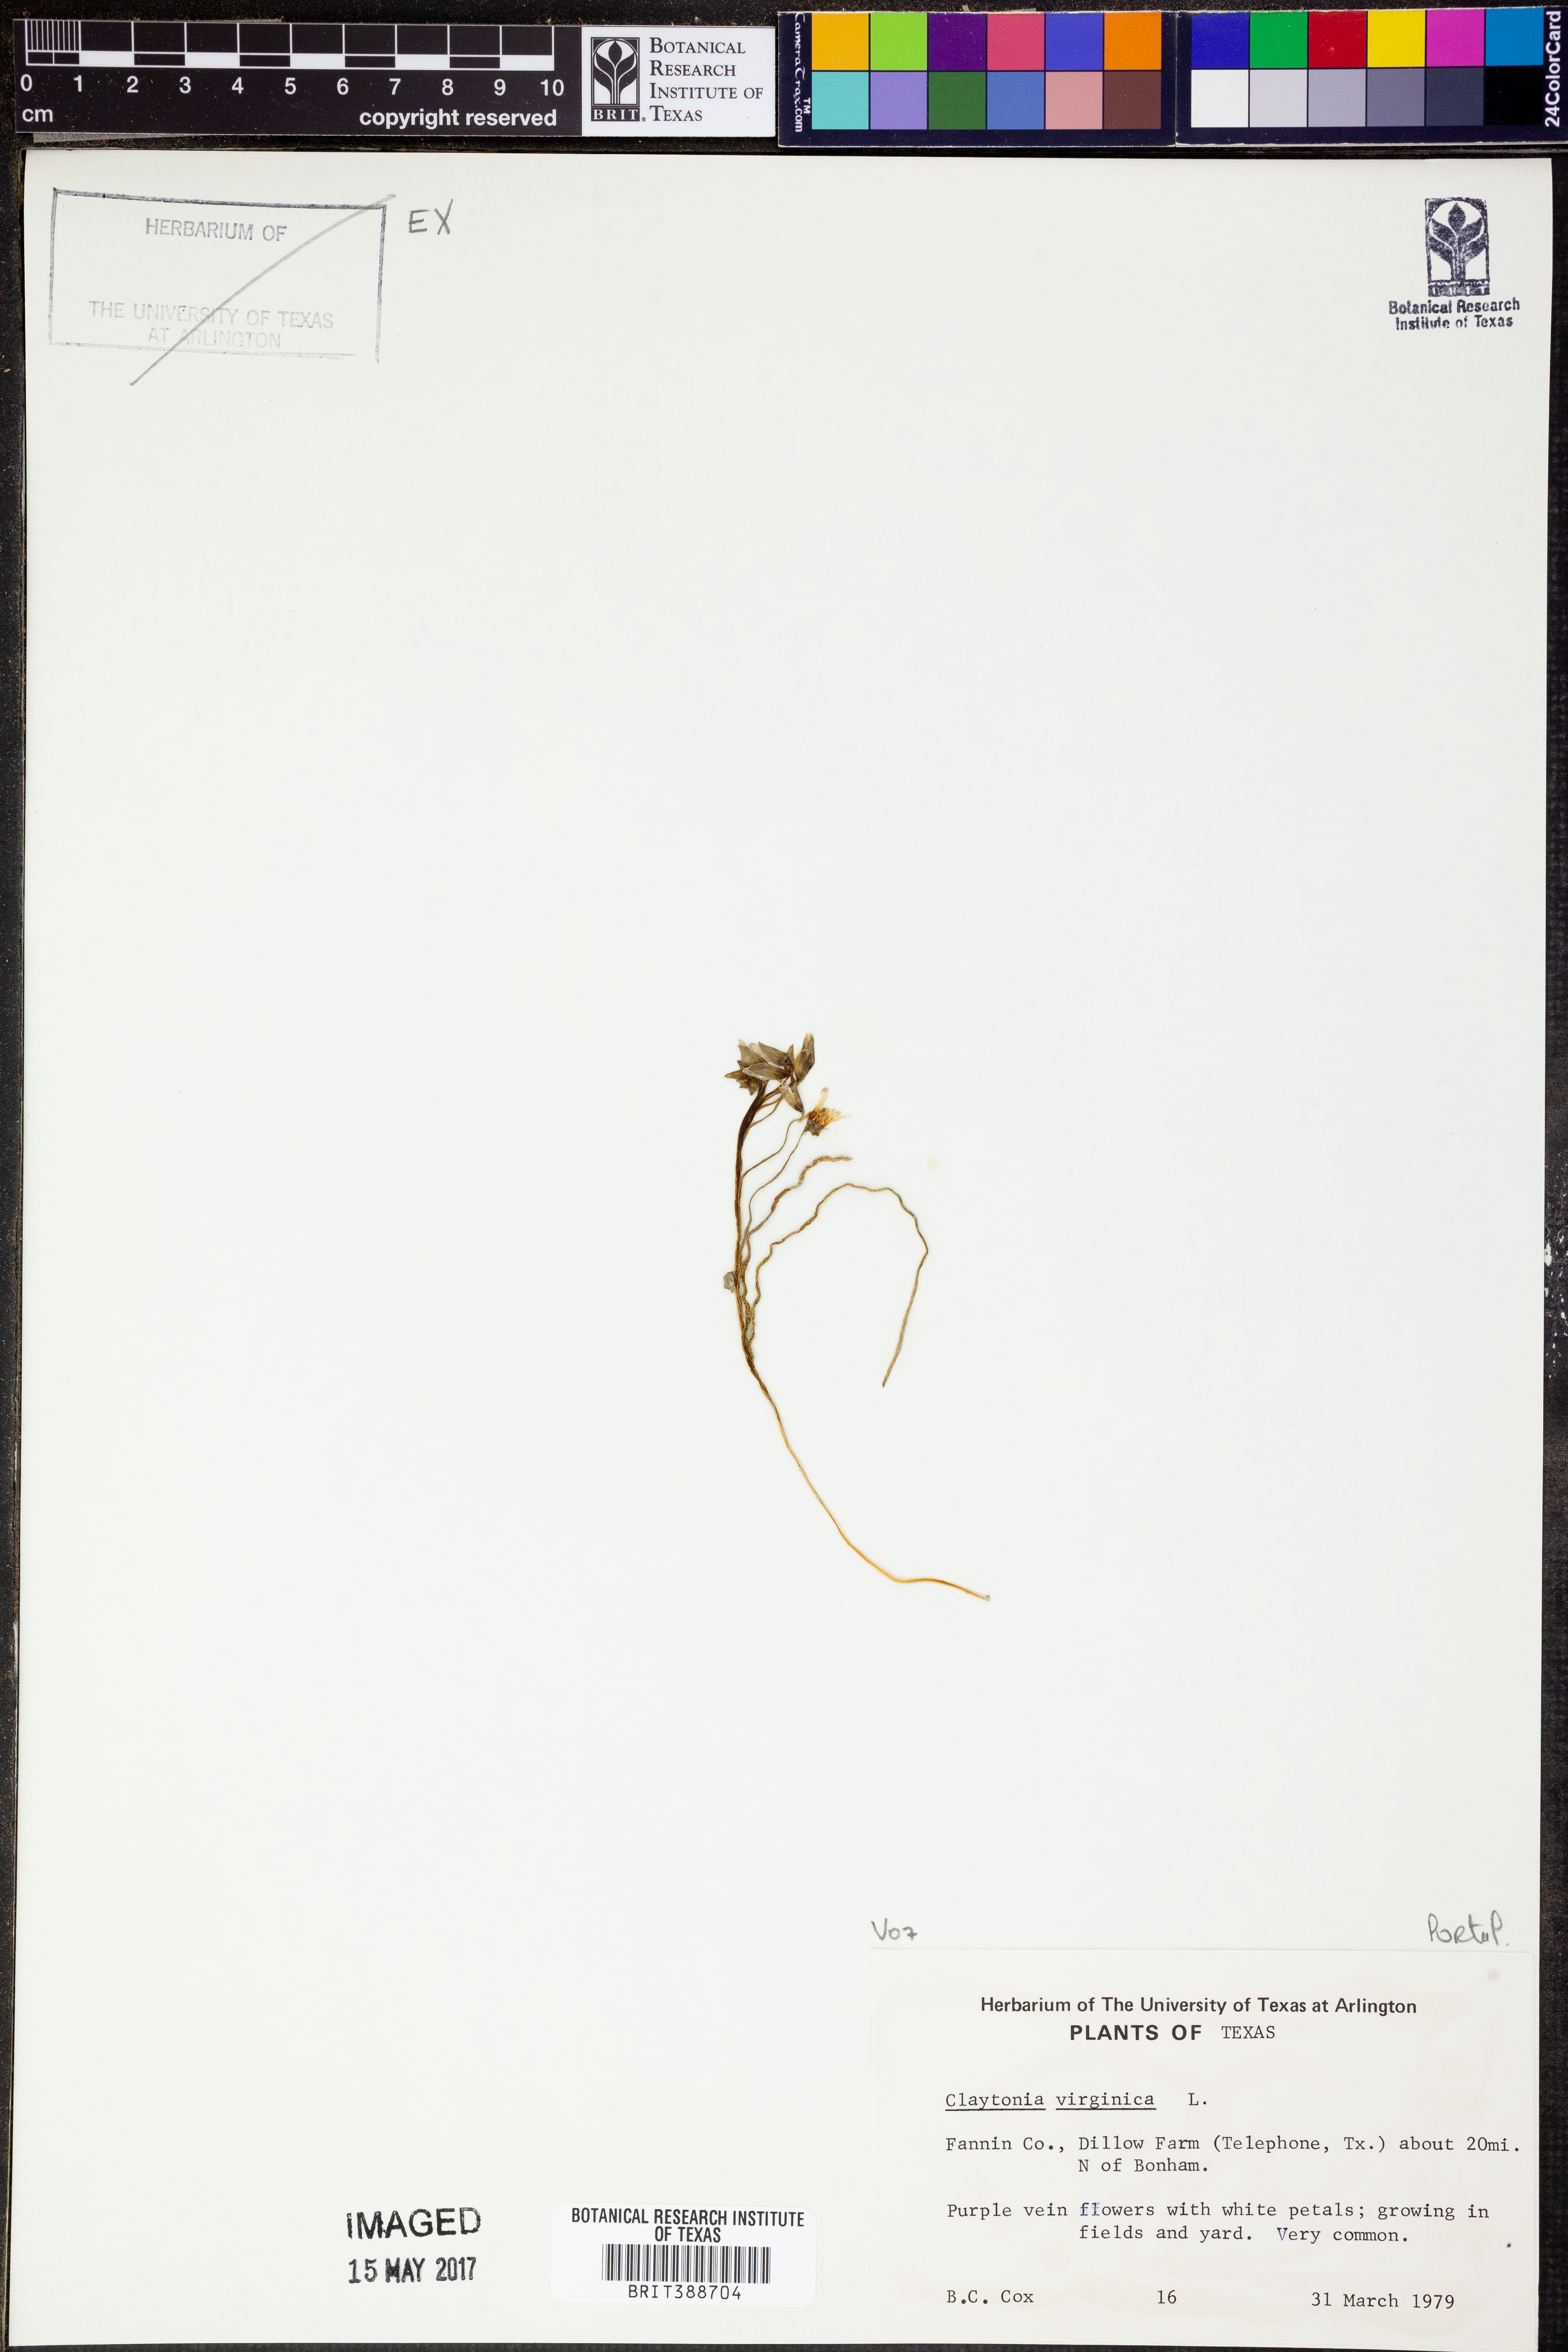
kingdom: Plantae
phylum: Tracheophyta
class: Magnoliopsida
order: Caryophyllales
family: Montiaceae
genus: Claytonia
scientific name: Claytonia virginica
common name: Virginia springbeauty
